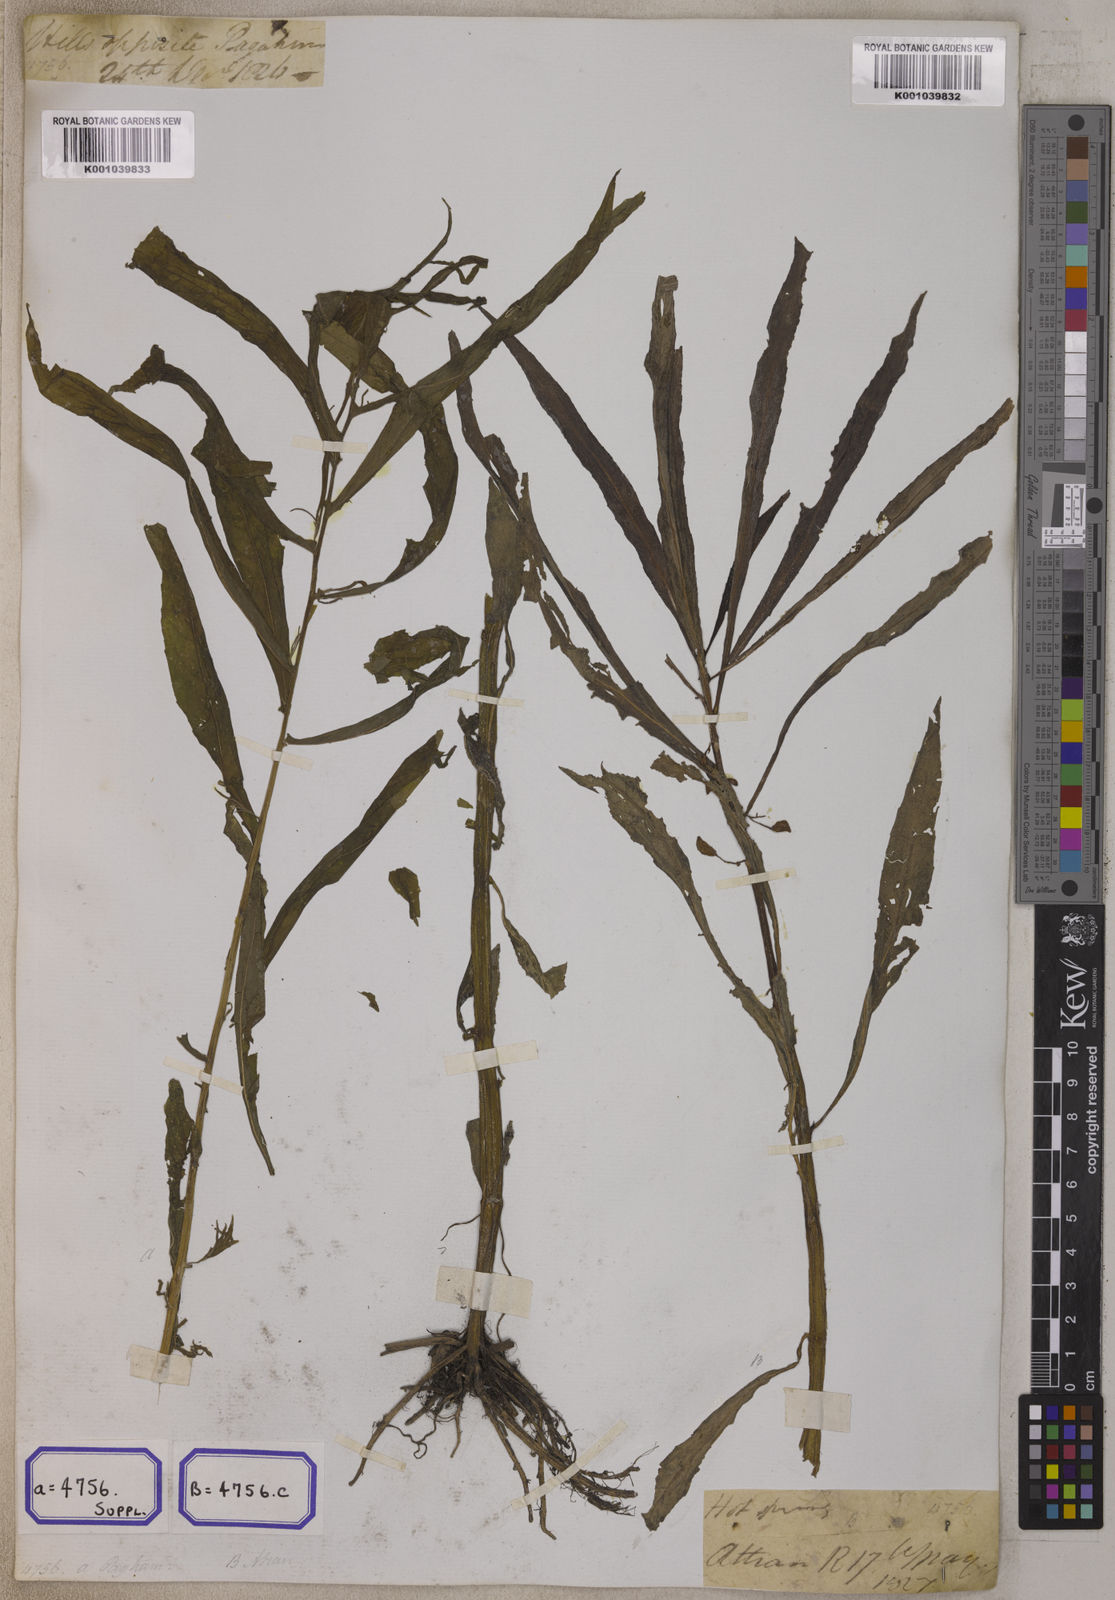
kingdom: Plantae
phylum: Tracheophyta
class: Magnoliopsida
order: Ericales
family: Balsaminaceae
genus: Hydrocera
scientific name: Hydrocera triflora
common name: Marsh henna
